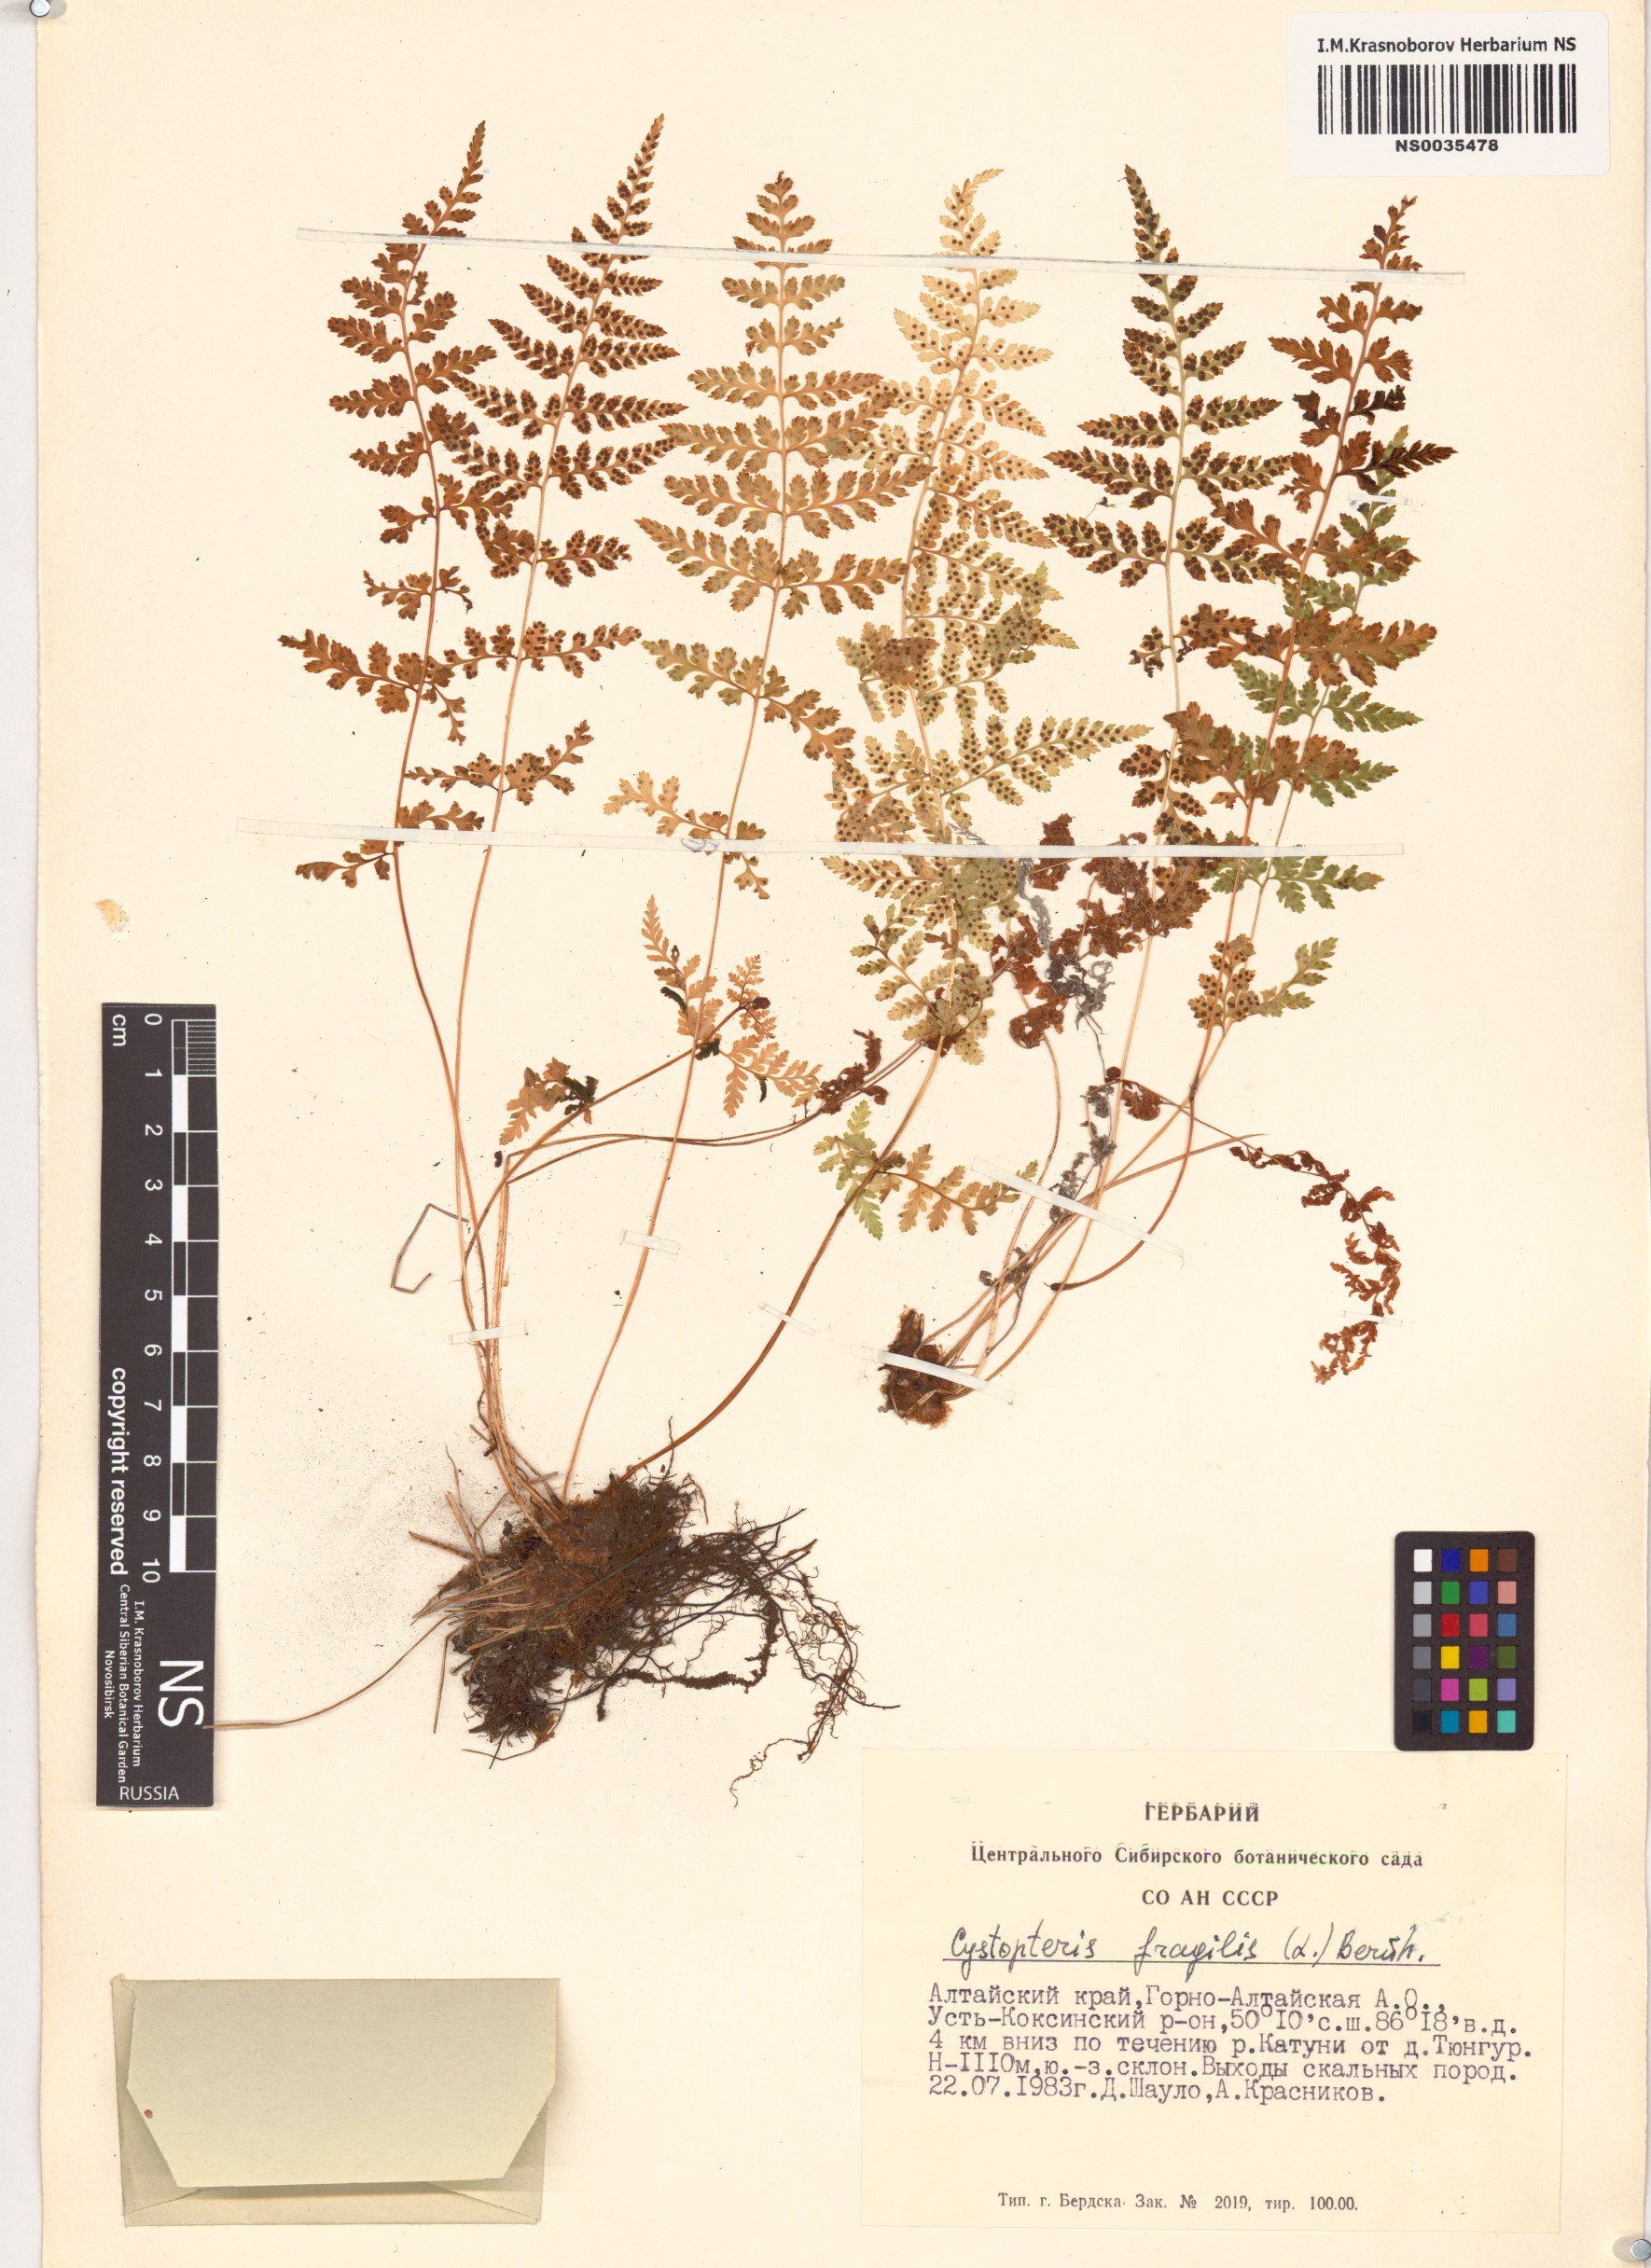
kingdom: Plantae
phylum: Tracheophyta
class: Polypodiopsida
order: Polypodiales
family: Cystopteridaceae
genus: Cystopteris
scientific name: Cystopteris fragilis
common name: Brittle bladder fern
